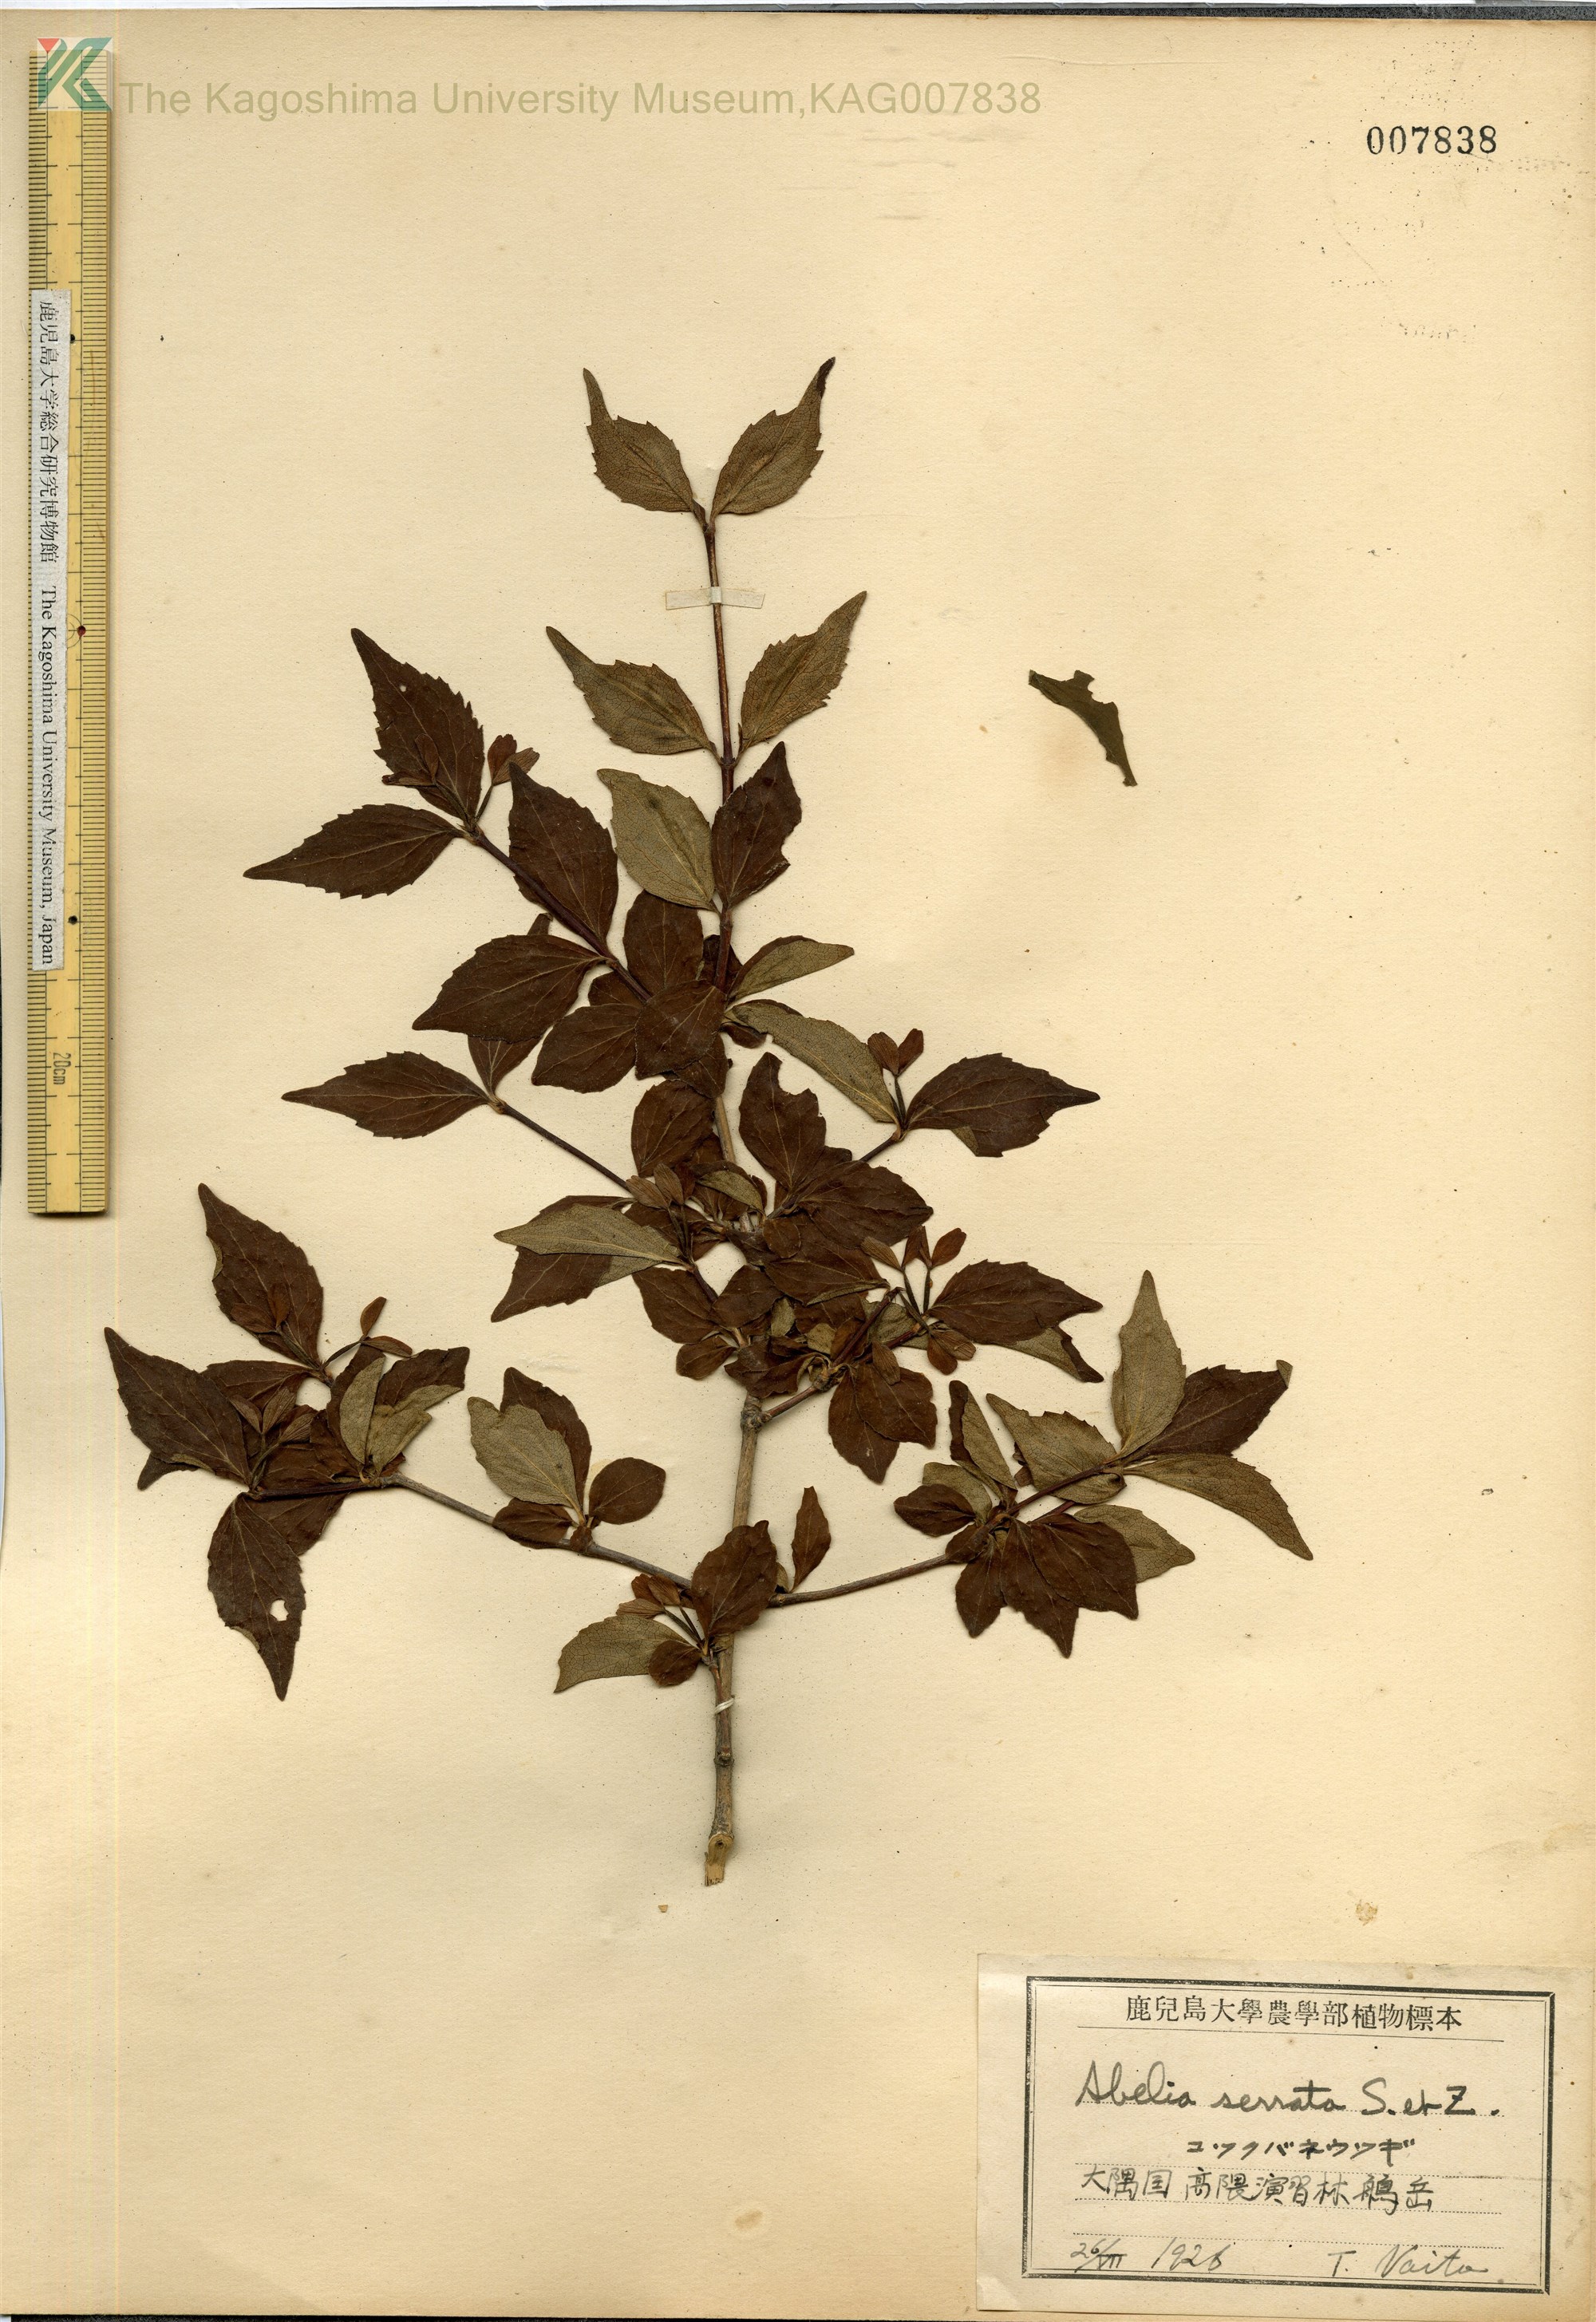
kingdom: Plantae
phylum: Tracheophyta
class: Magnoliopsida
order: Dipsacales
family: Caprifoliaceae
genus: Diabelia
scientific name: Diabelia serrata
